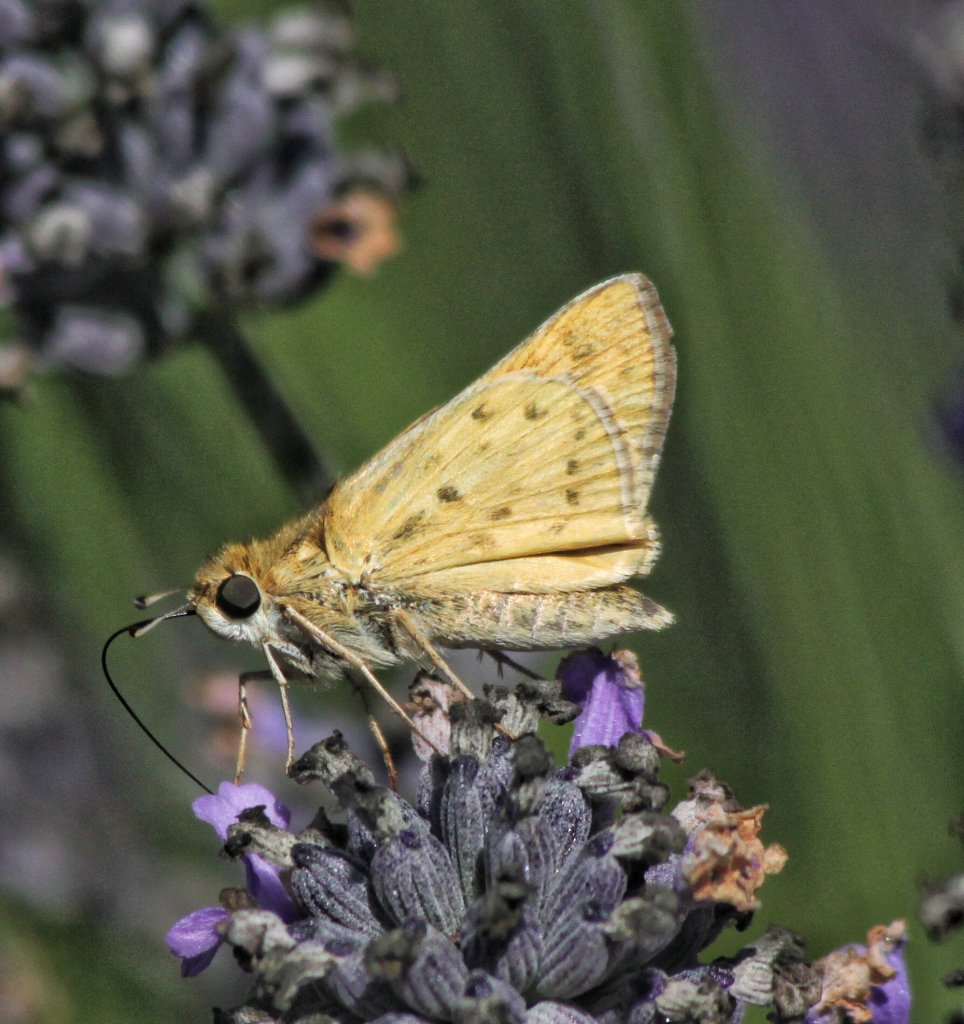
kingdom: Animalia
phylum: Arthropoda
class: Insecta
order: Lepidoptera
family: Hesperiidae
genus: Hylephila
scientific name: Hylephila phyleus
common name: Fiery Skipper
